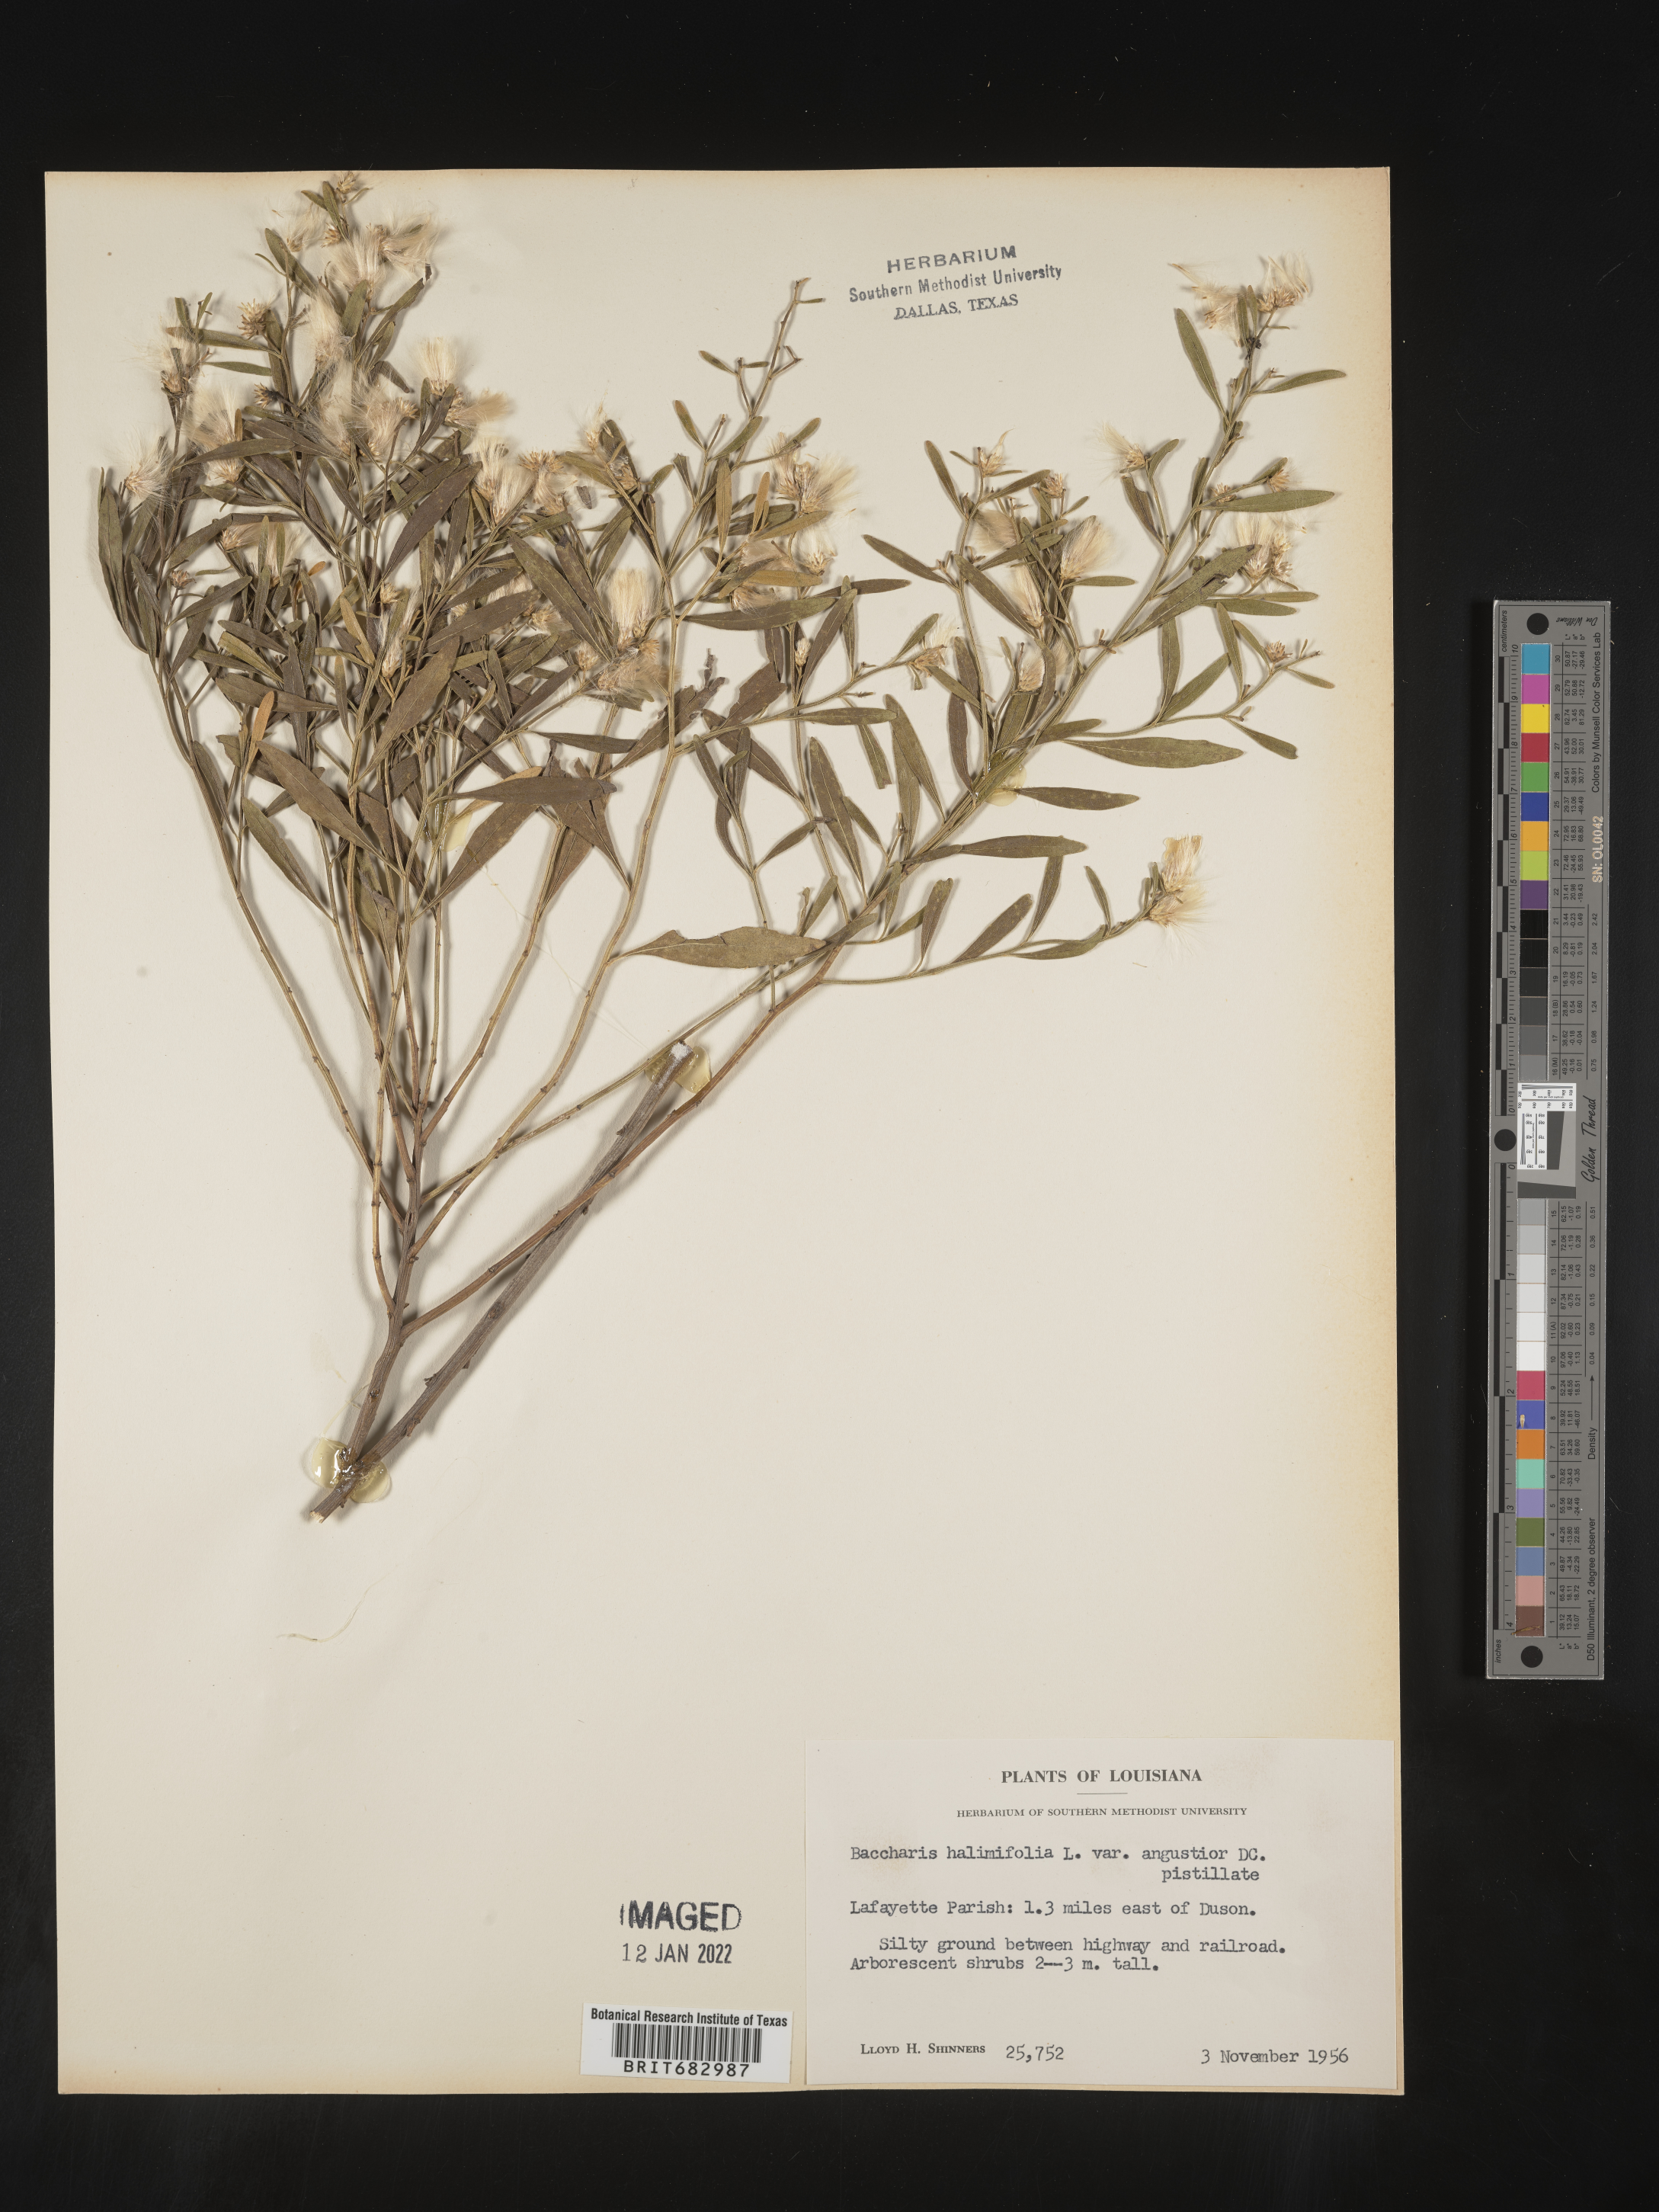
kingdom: Plantae
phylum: Tracheophyta
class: Magnoliopsida
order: Asterales
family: Asteraceae
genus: Nidorella
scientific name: Nidorella ivifolia
